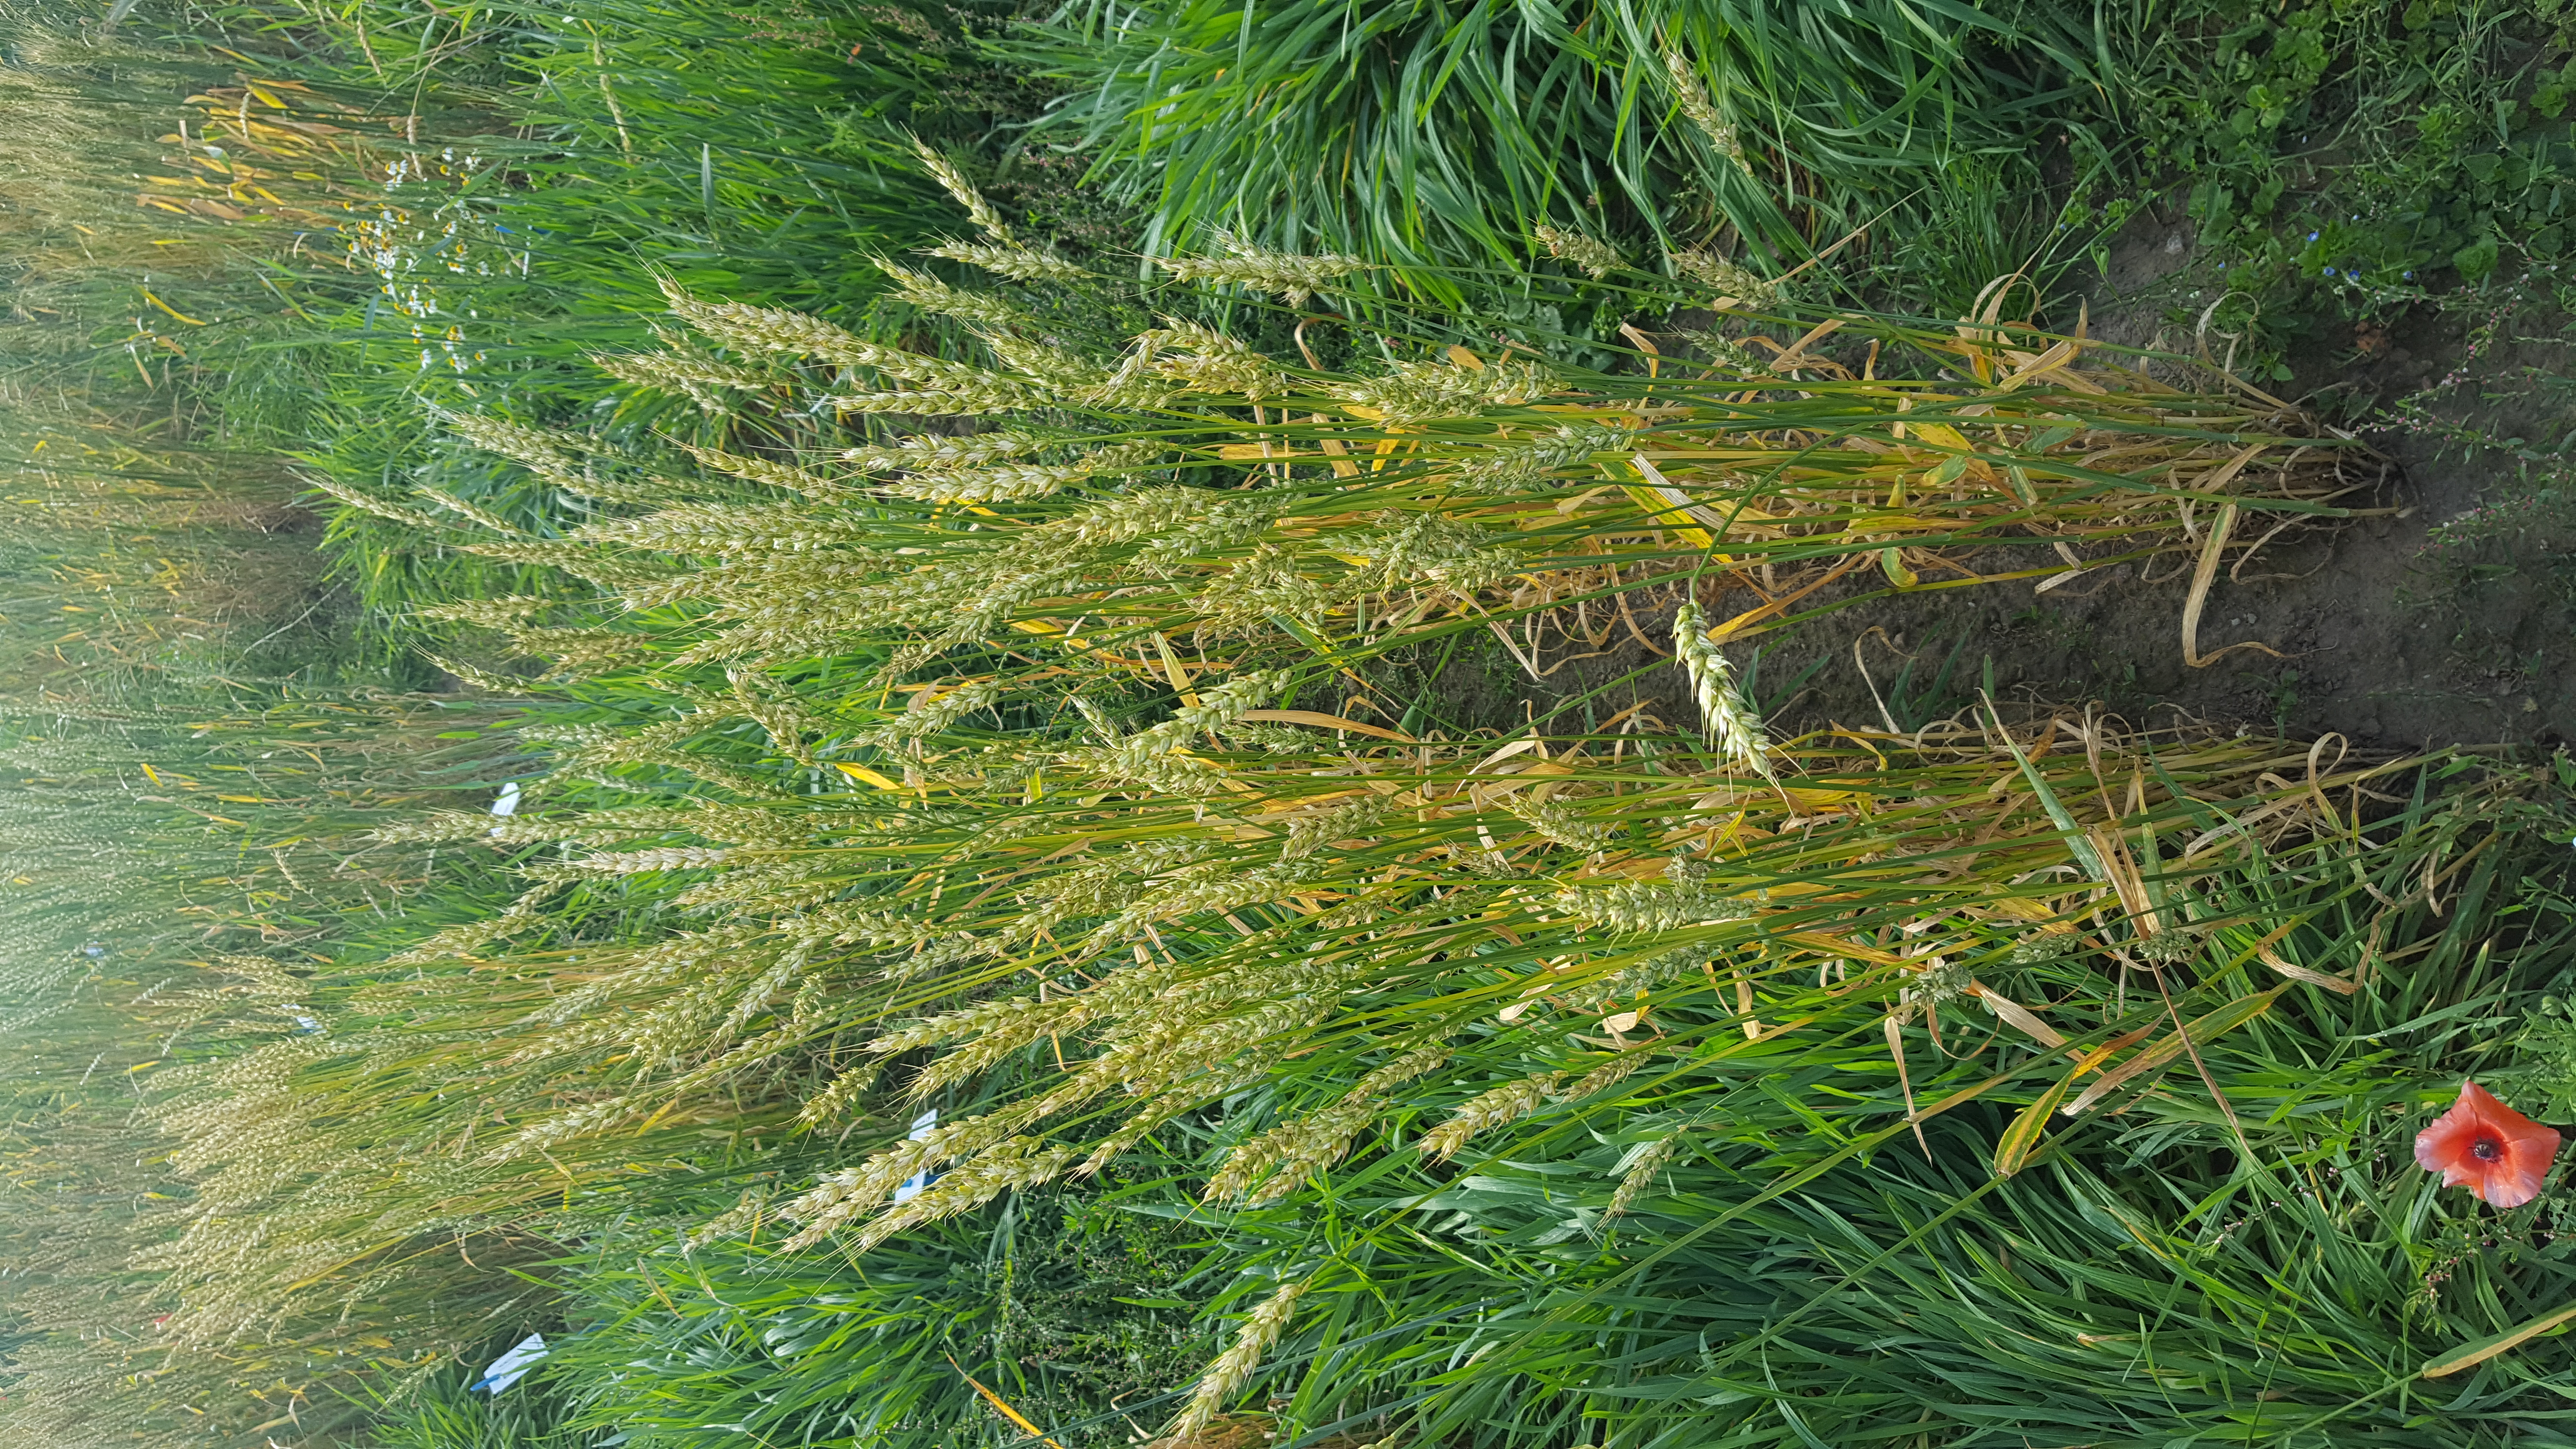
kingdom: Plantae
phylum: Tracheophyta
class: Liliopsida
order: Poales
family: Poaceae
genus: Triticum
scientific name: Triticum aestivum
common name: Common wheat
